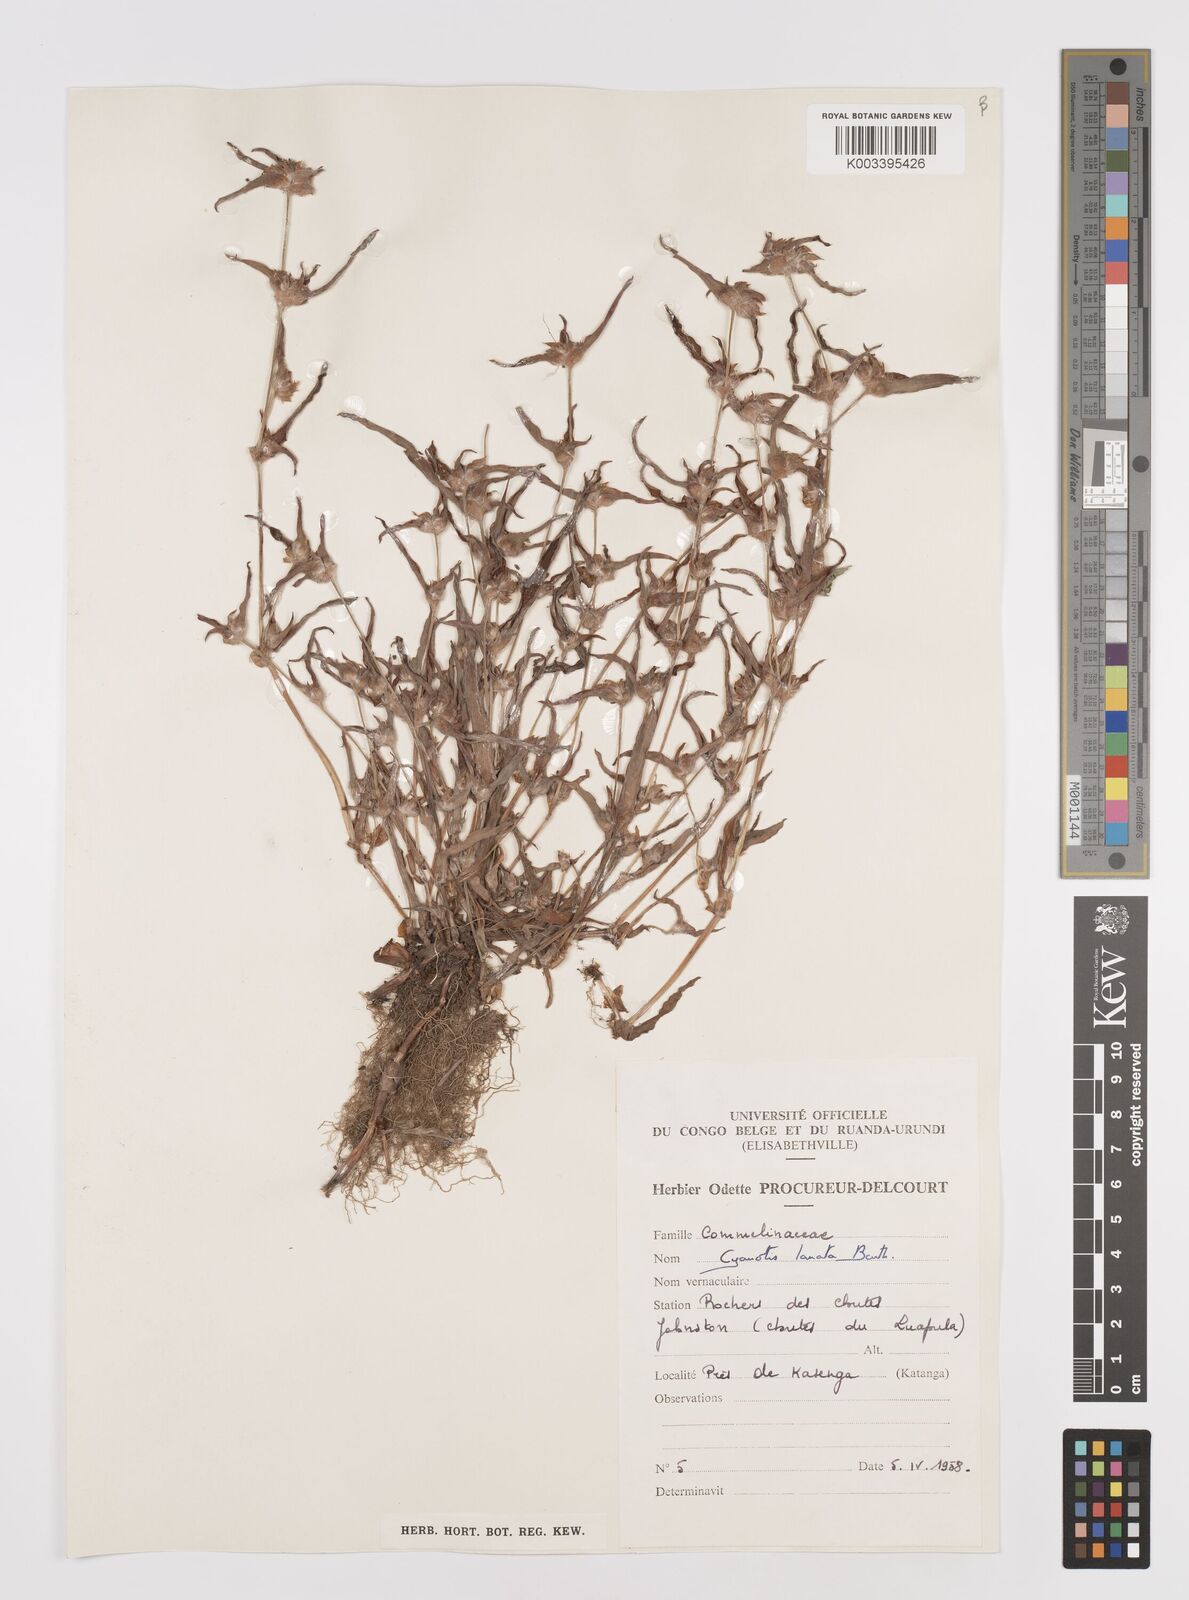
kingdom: Plantae
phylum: Tracheophyta
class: Liliopsida
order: Commelinales
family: Commelinaceae
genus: Cyanotis
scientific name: Cyanotis lanata
